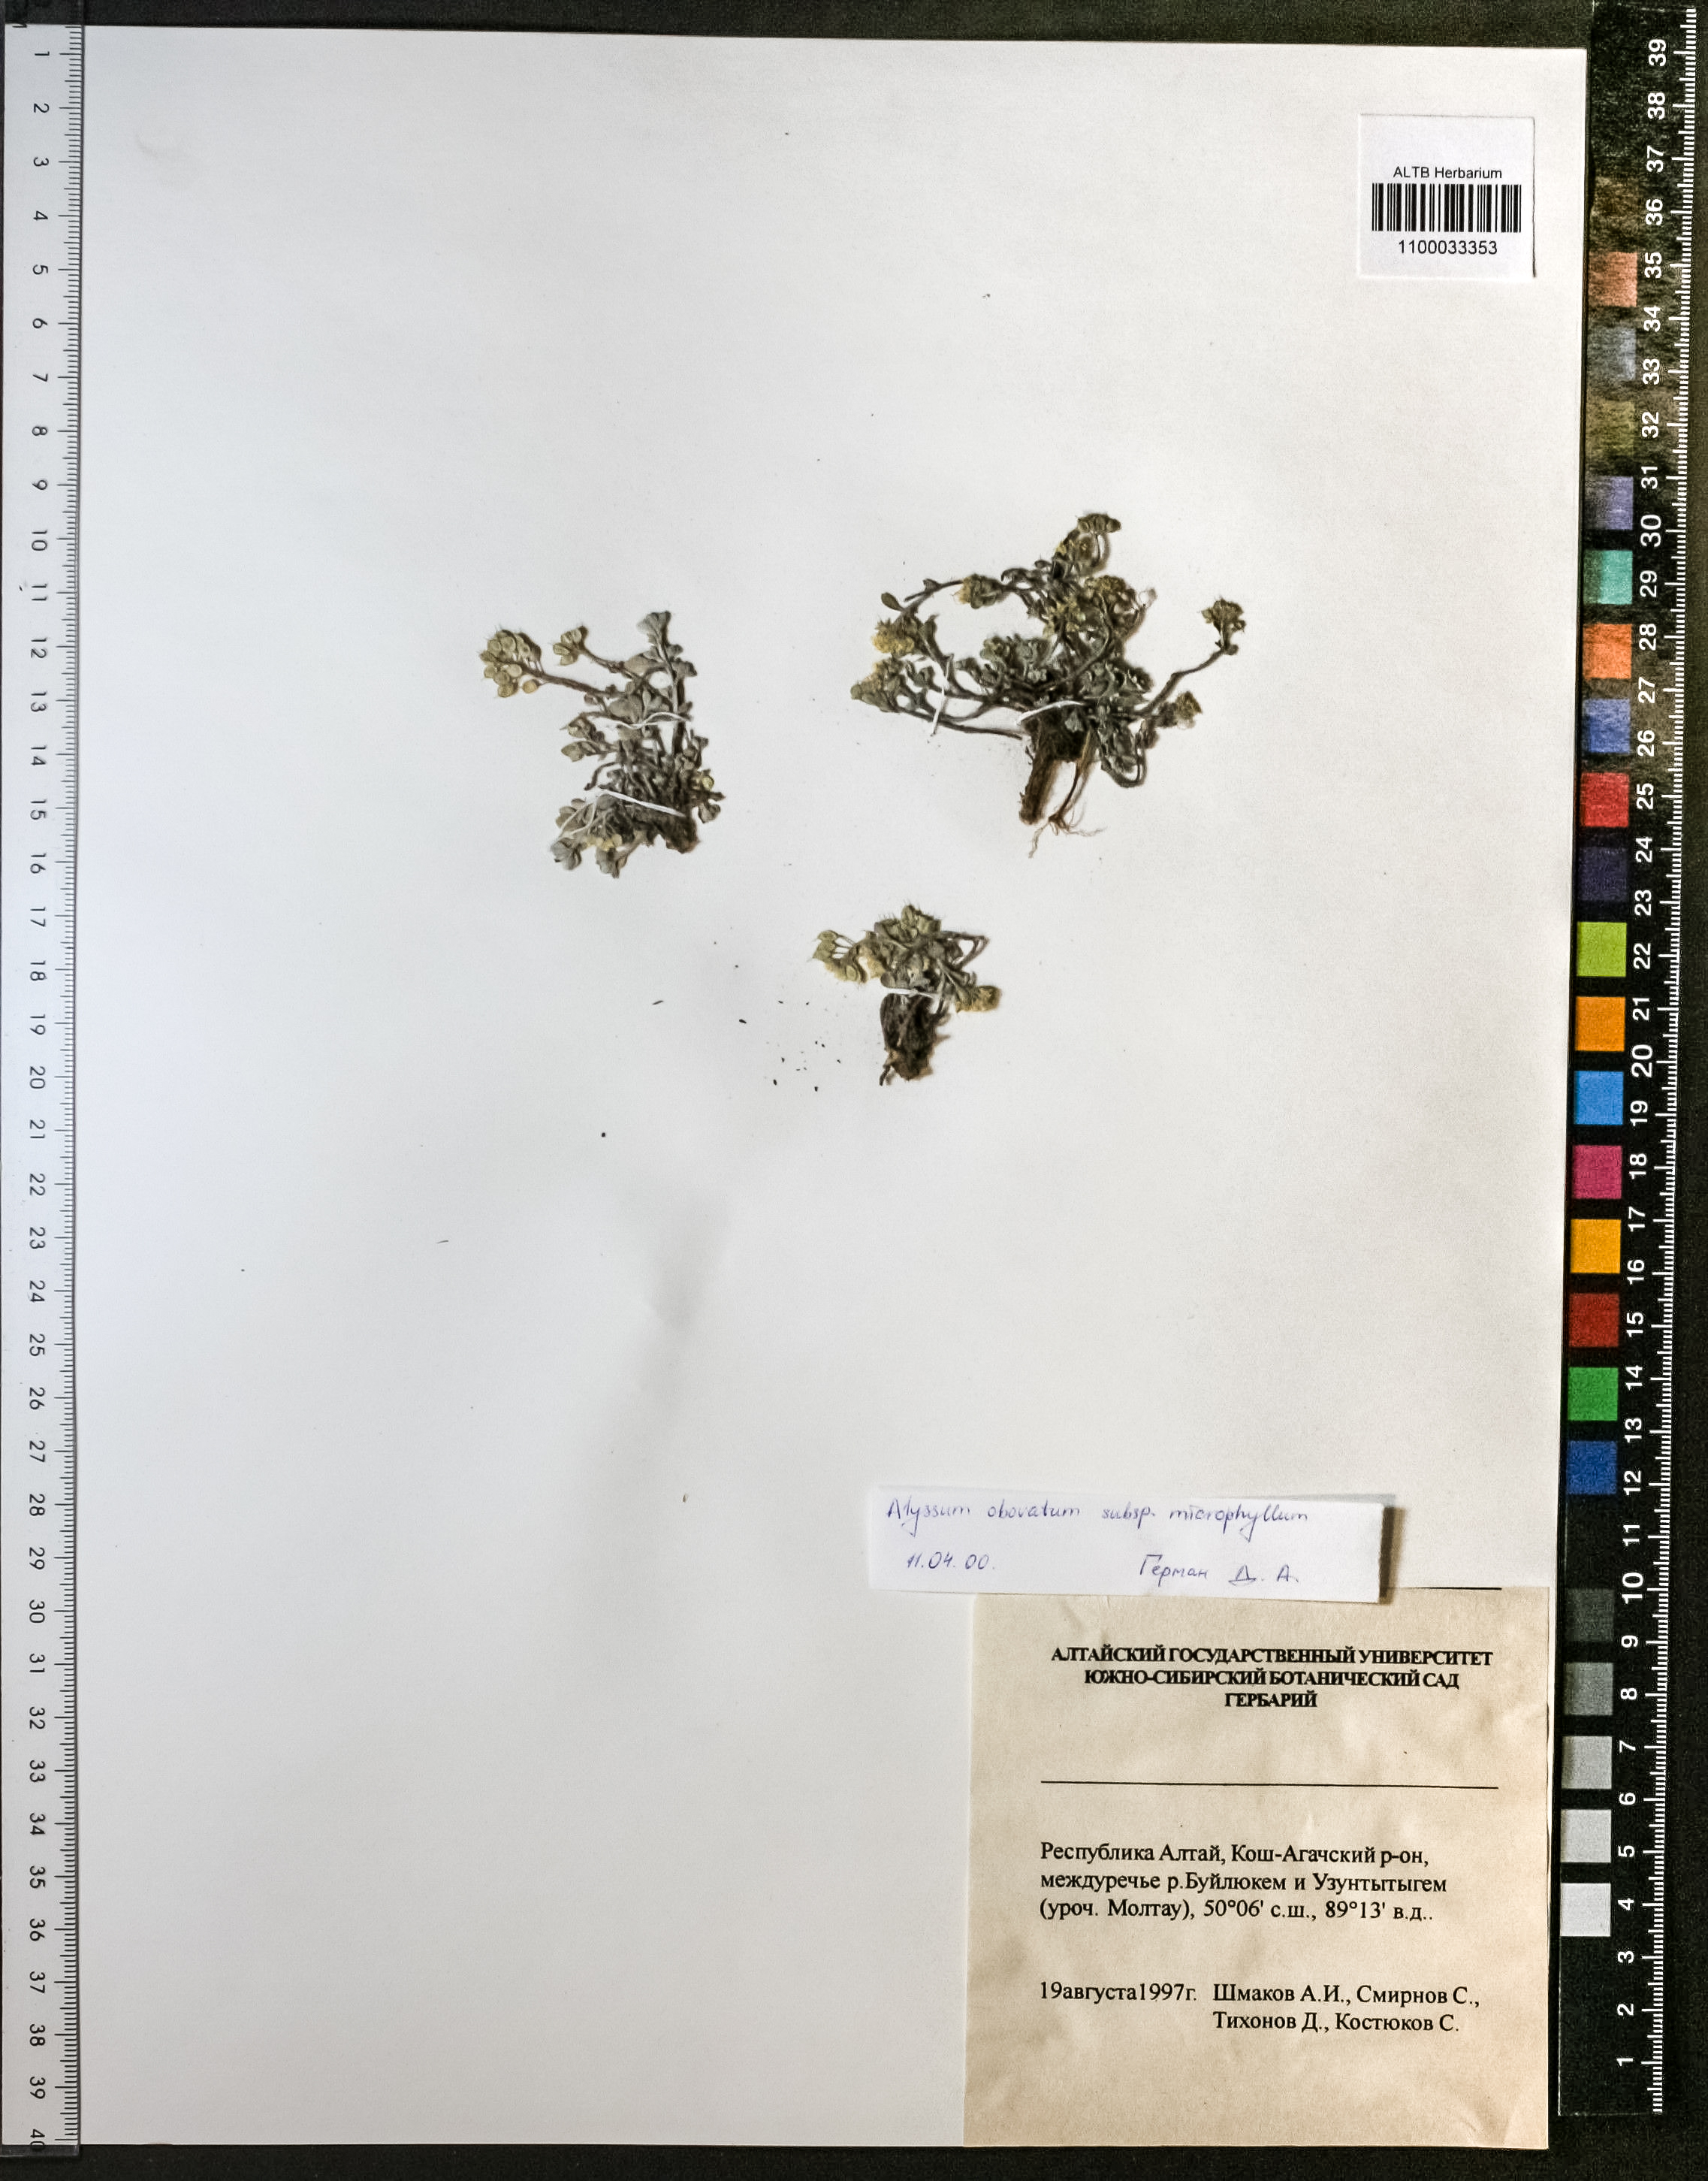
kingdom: Plantae
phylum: Tracheophyta
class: Magnoliopsida
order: Brassicales
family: Brassicaceae
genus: Odontarrhena
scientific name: Odontarrhena obovata
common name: American alyssum
